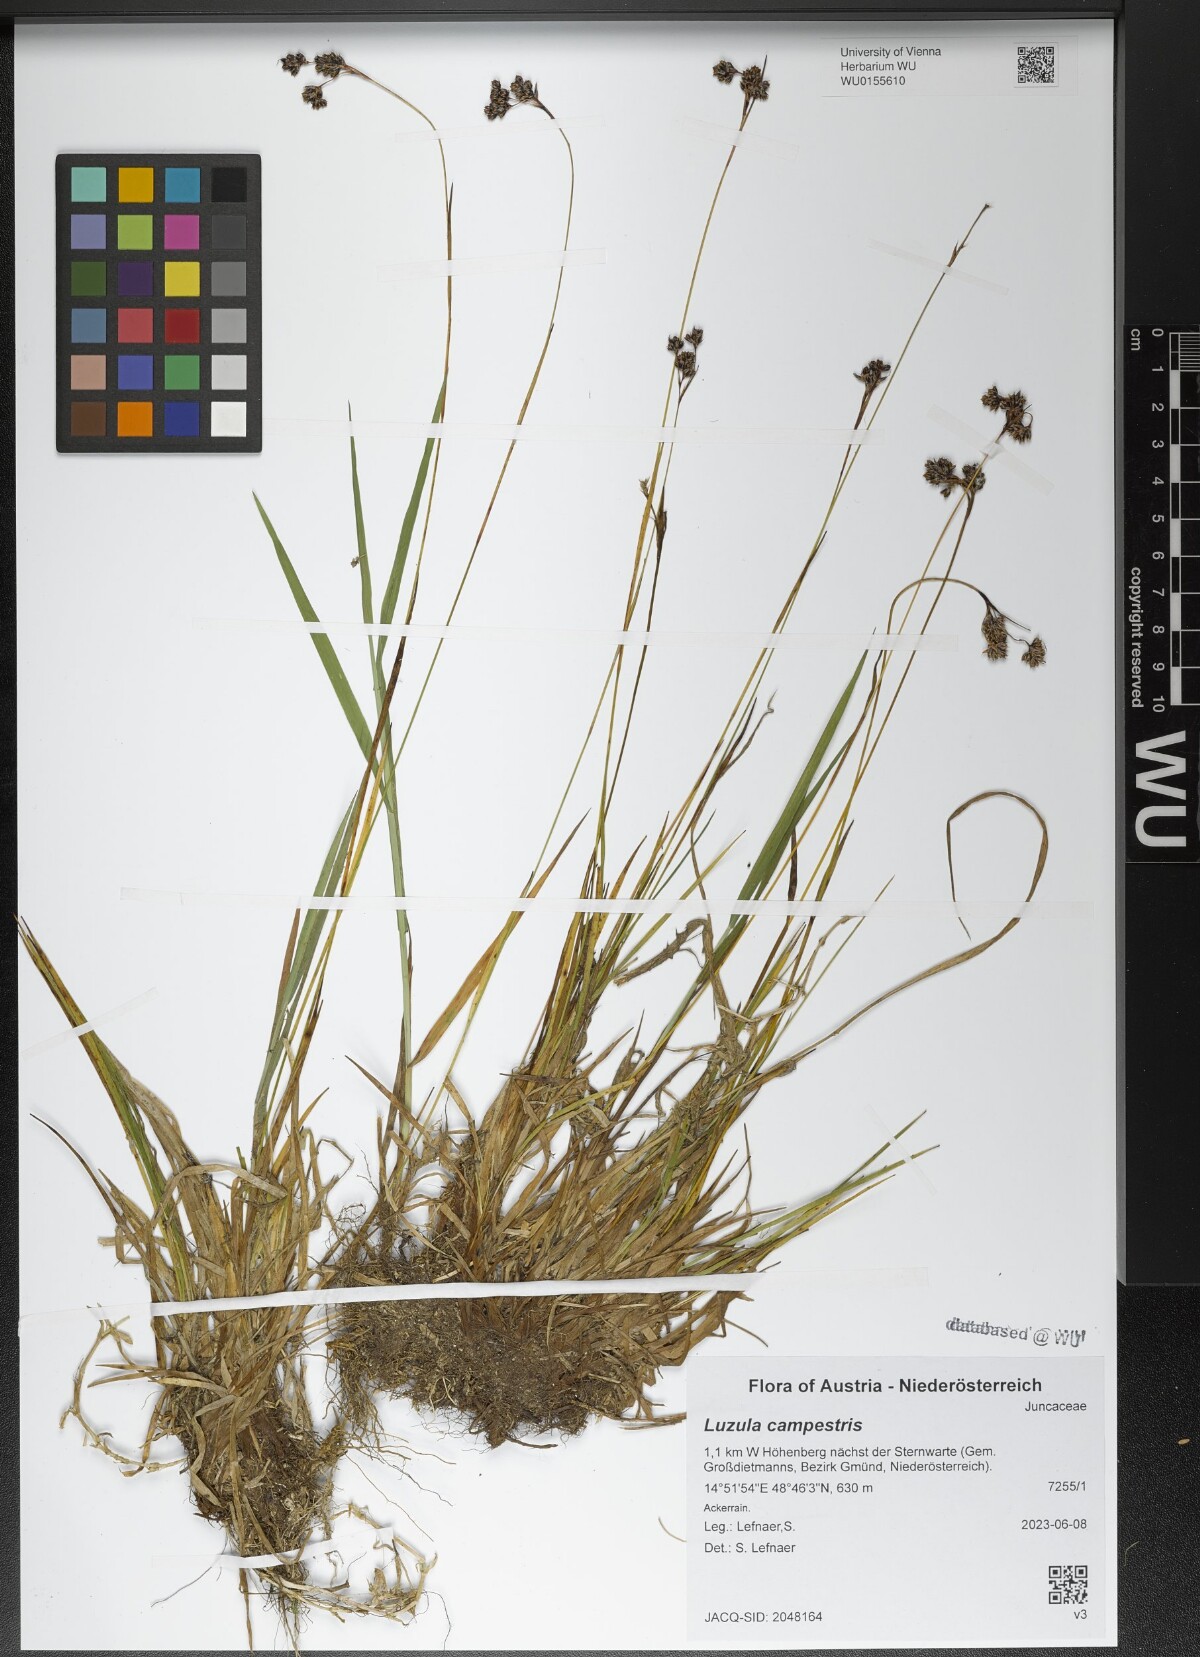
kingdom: Plantae
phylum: Tracheophyta
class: Liliopsida
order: Poales
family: Juncaceae
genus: Luzula
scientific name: Luzula campestris
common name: Field wood-rush
